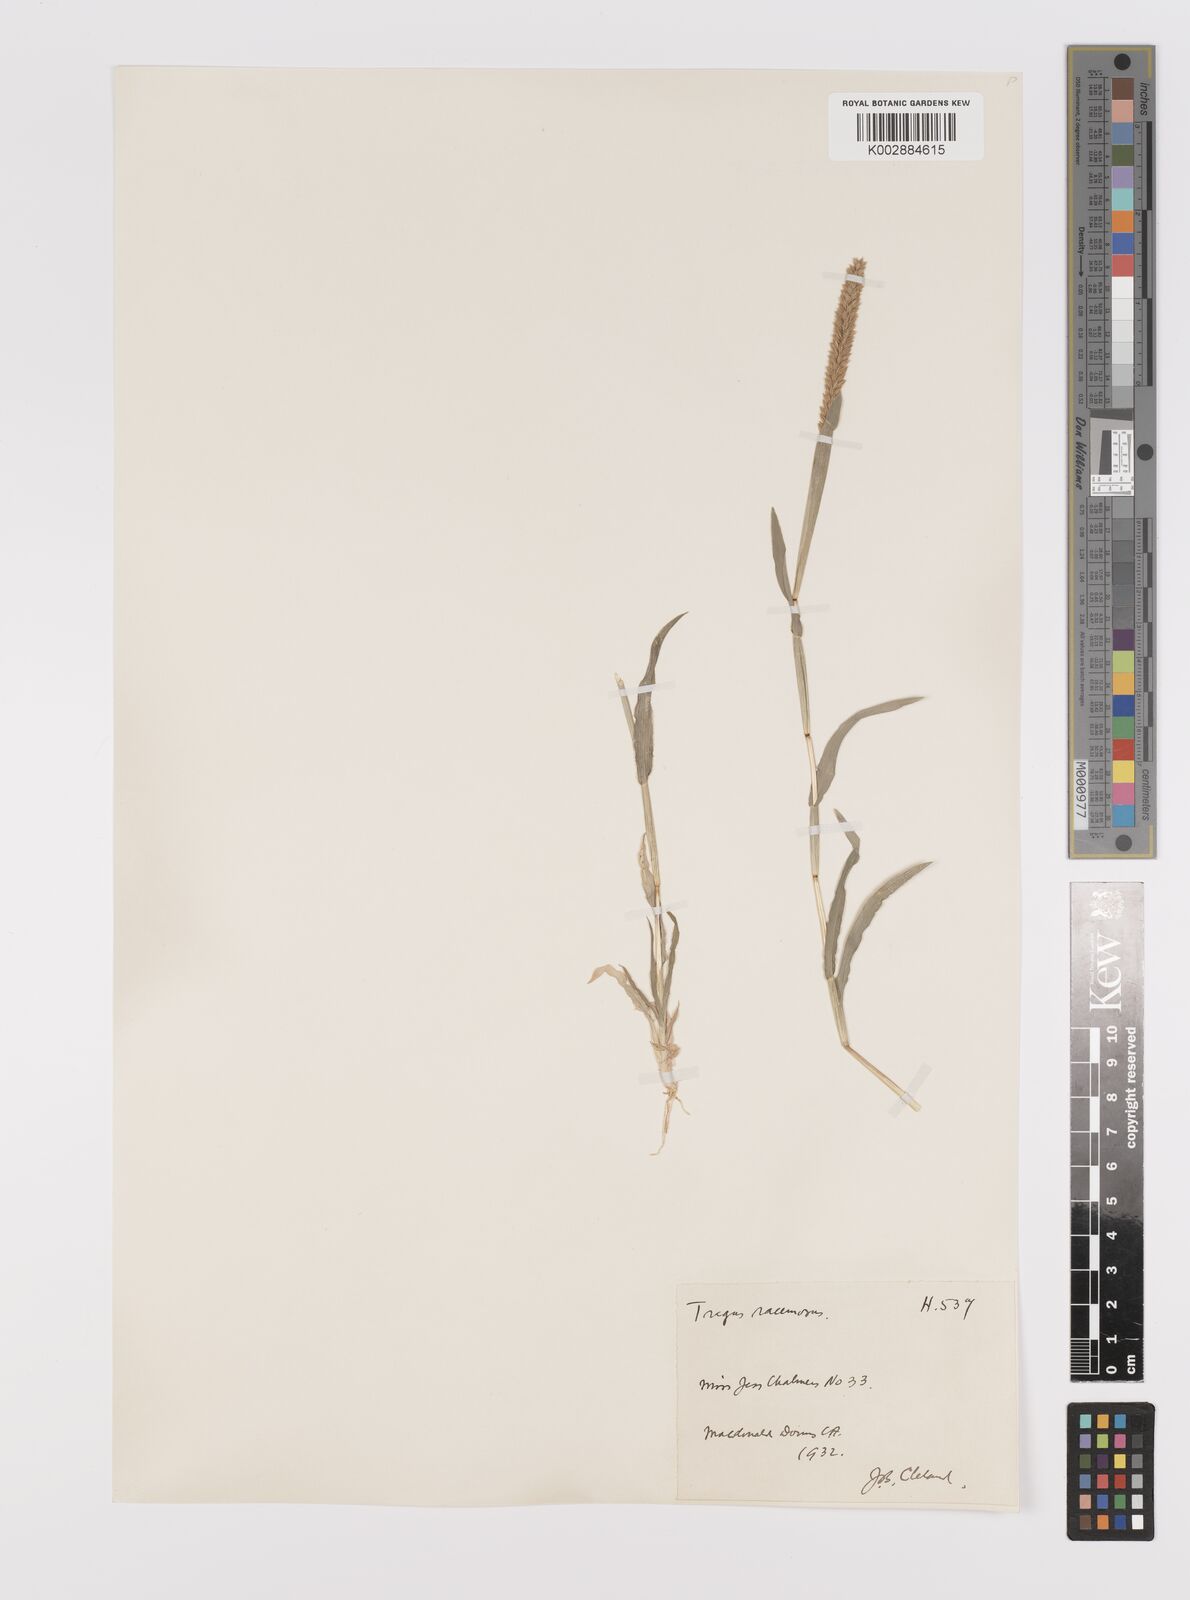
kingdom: Plantae
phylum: Tracheophyta
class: Liliopsida
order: Poales
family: Poaceae
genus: Tragus
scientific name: Tragus australianus
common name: Australian bur-grass
